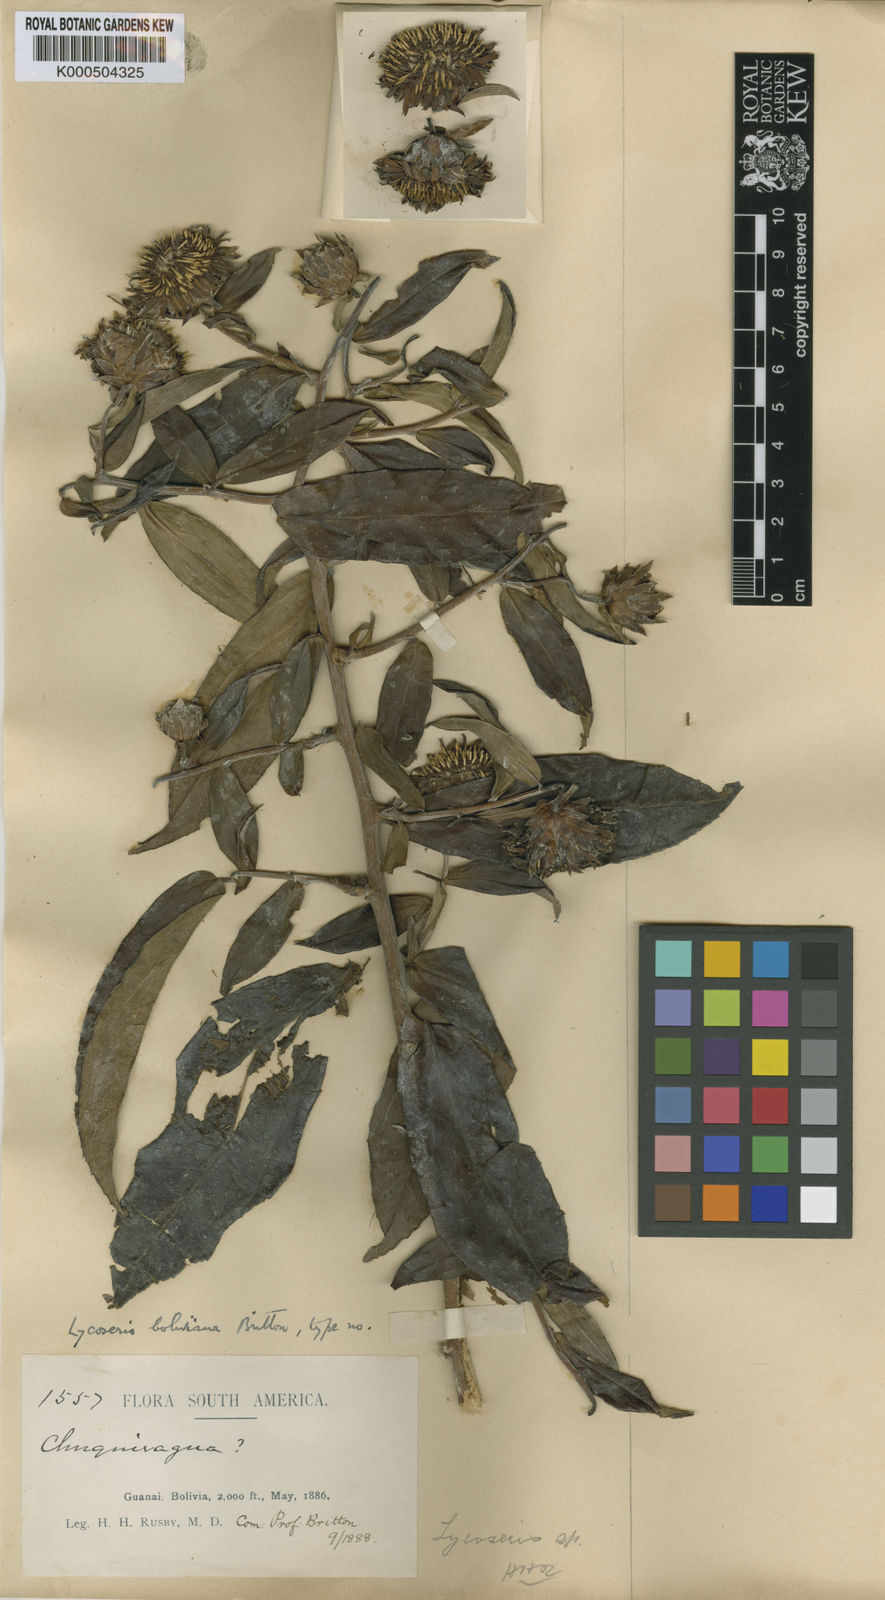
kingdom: Plantae
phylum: Tracheophyta
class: Magnoliopsida
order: Asterales
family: Asteraceae
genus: Lycoseris
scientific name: Lycoseris boliviana
